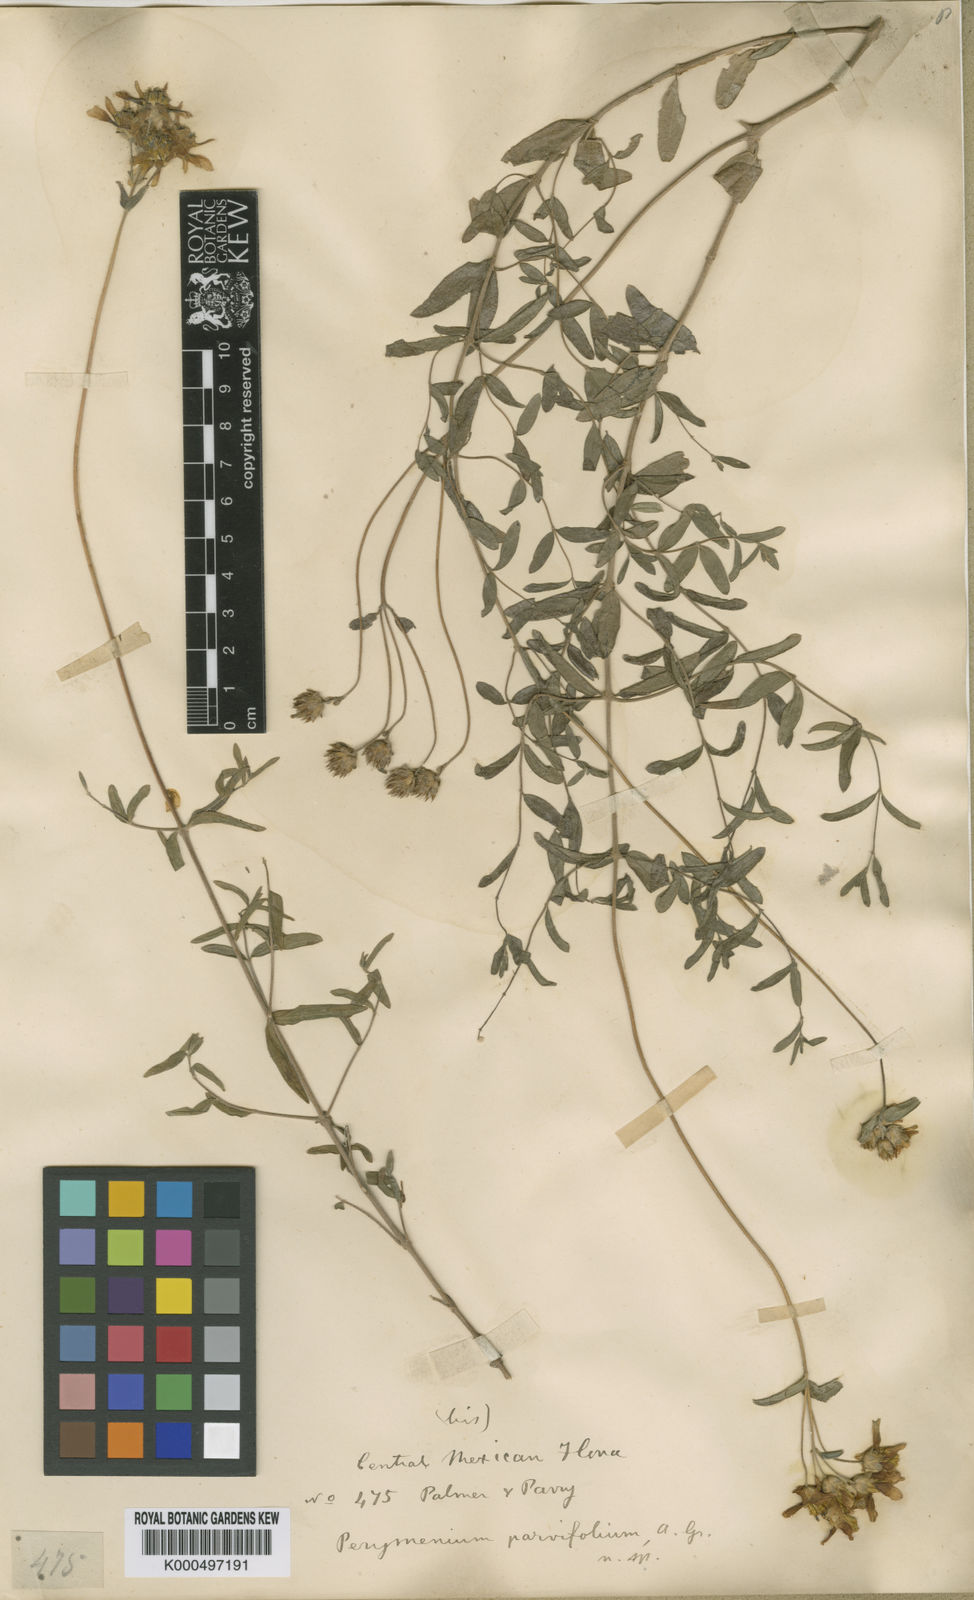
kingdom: Plantae
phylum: Tracheophyta
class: Magnoliopsida
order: Asterales
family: Asteraceae
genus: Perymenium
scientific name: Perymenium mendezii
